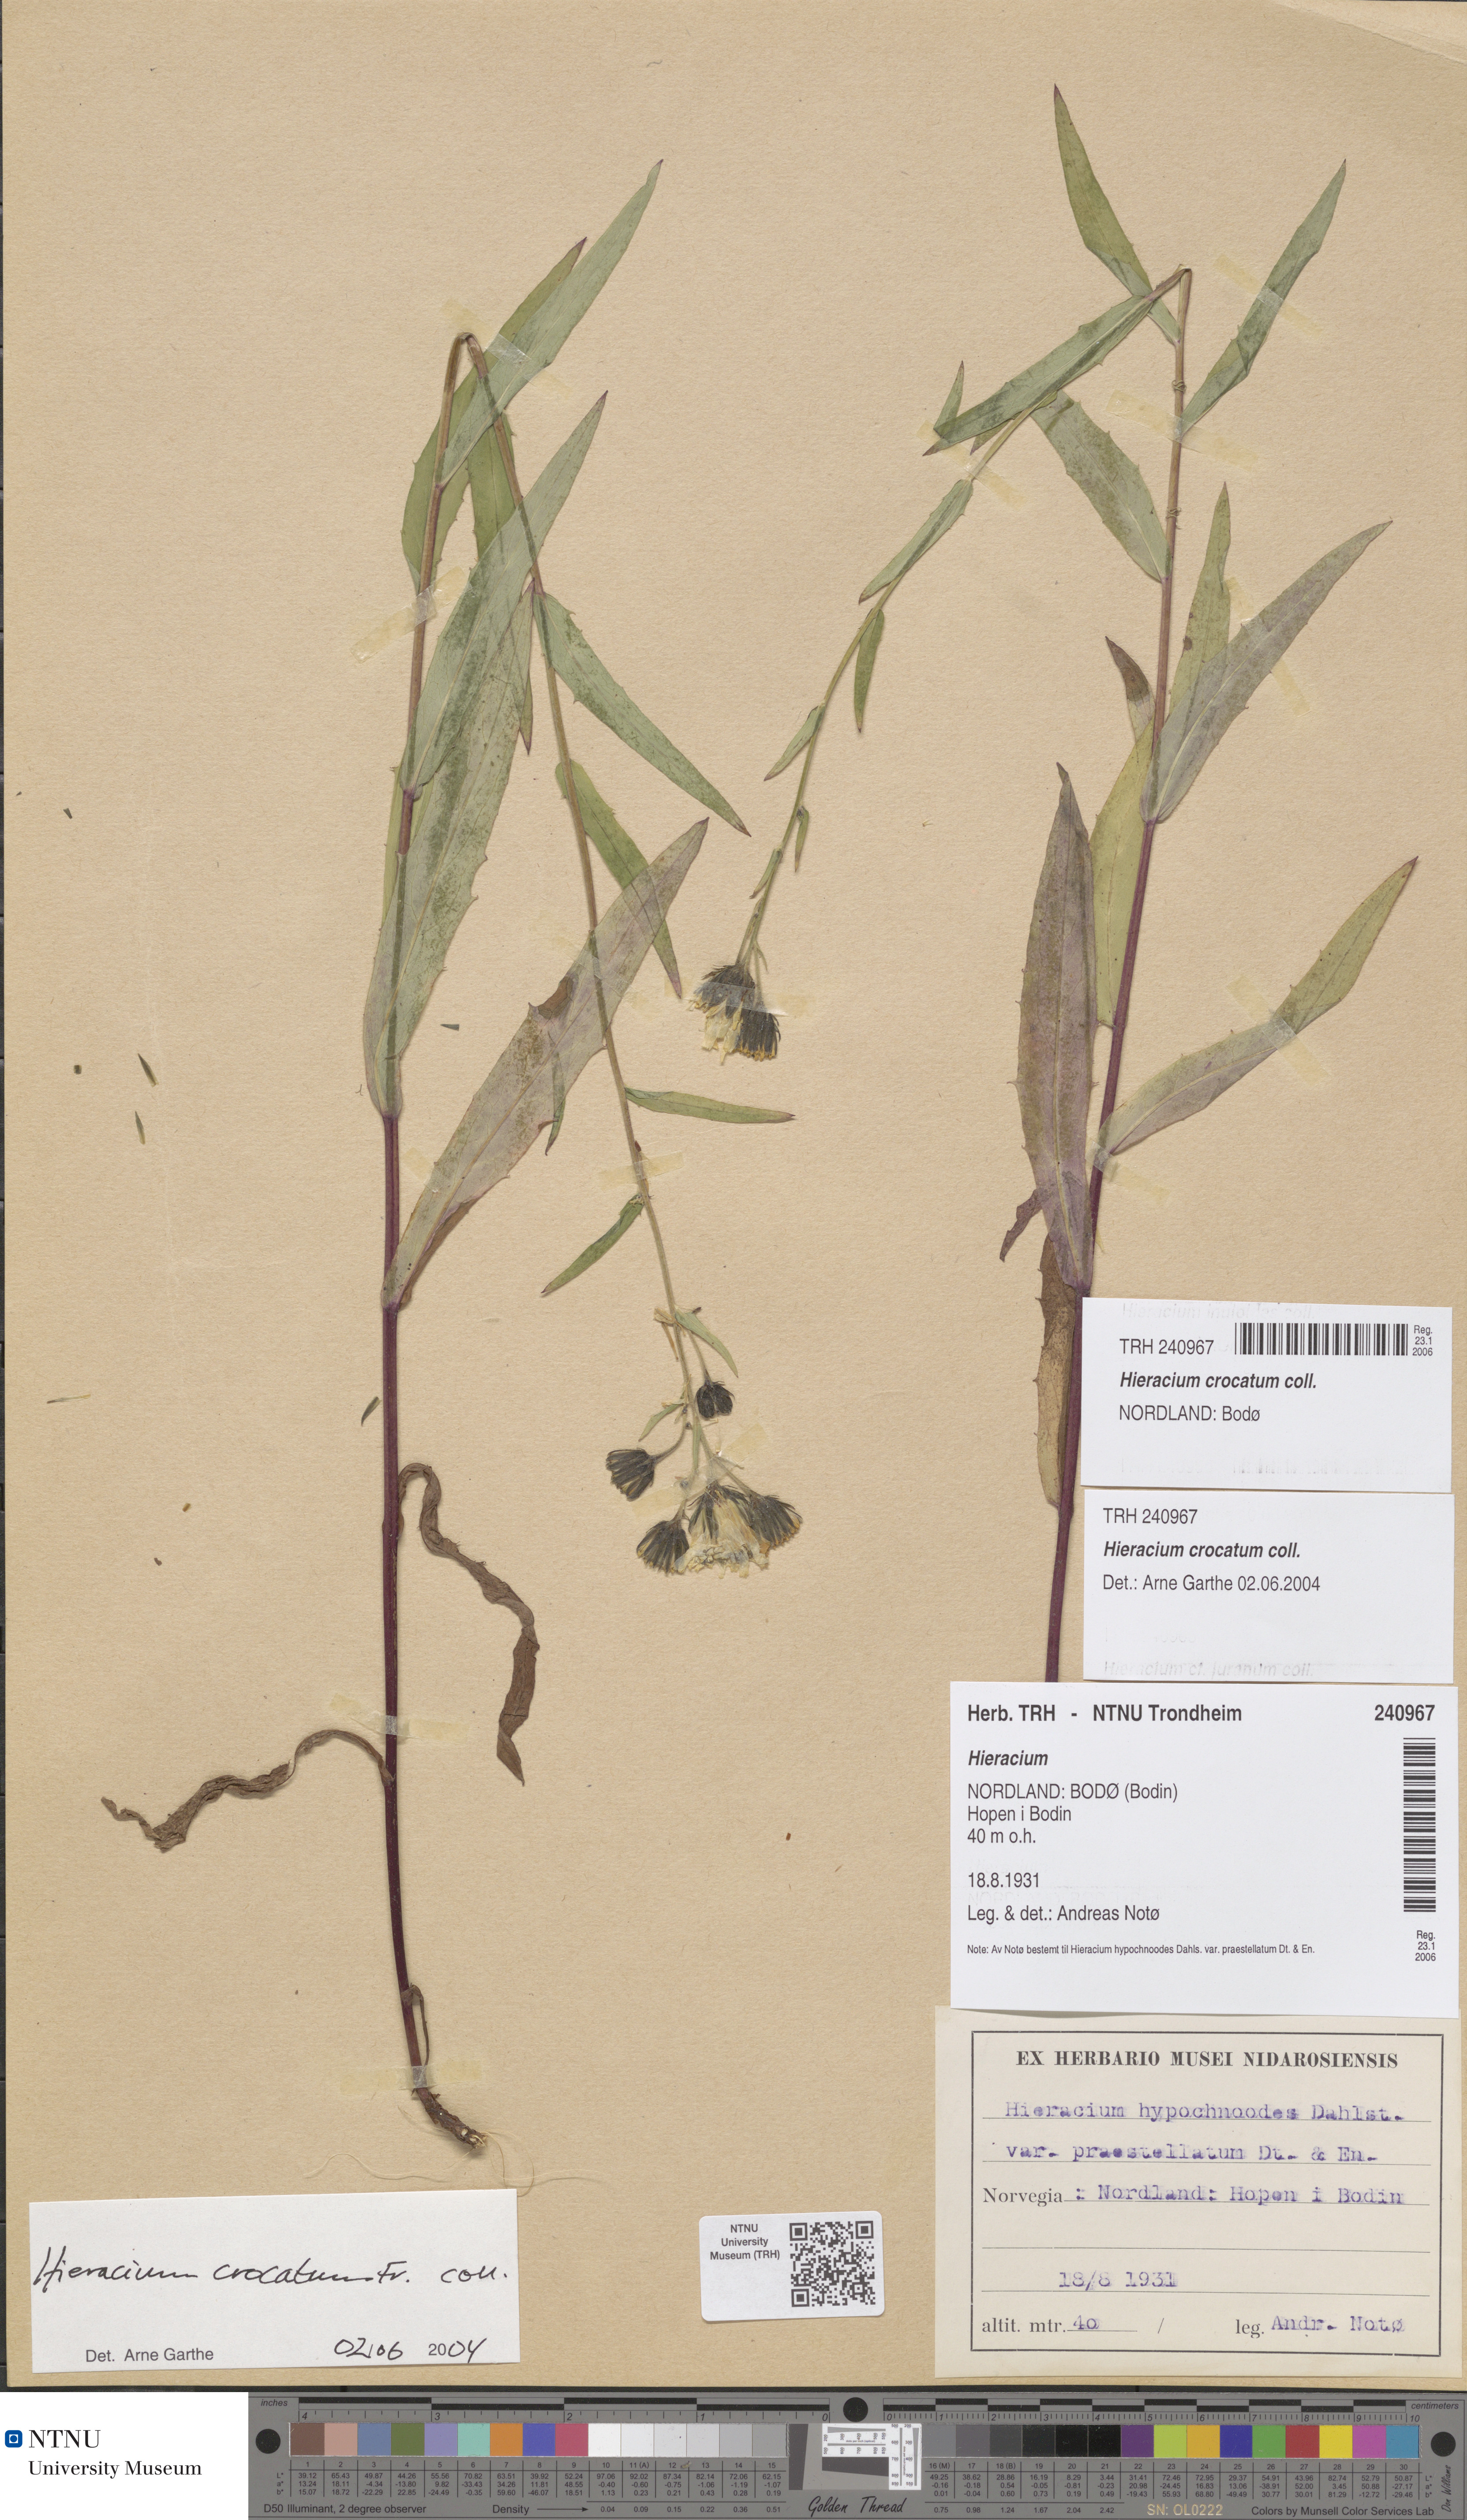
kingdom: Plantae
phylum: Tracheophyta
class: Magnoliopsida
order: Asterales
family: Asteraceae
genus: Hieracium
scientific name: Hieracium crocatum
